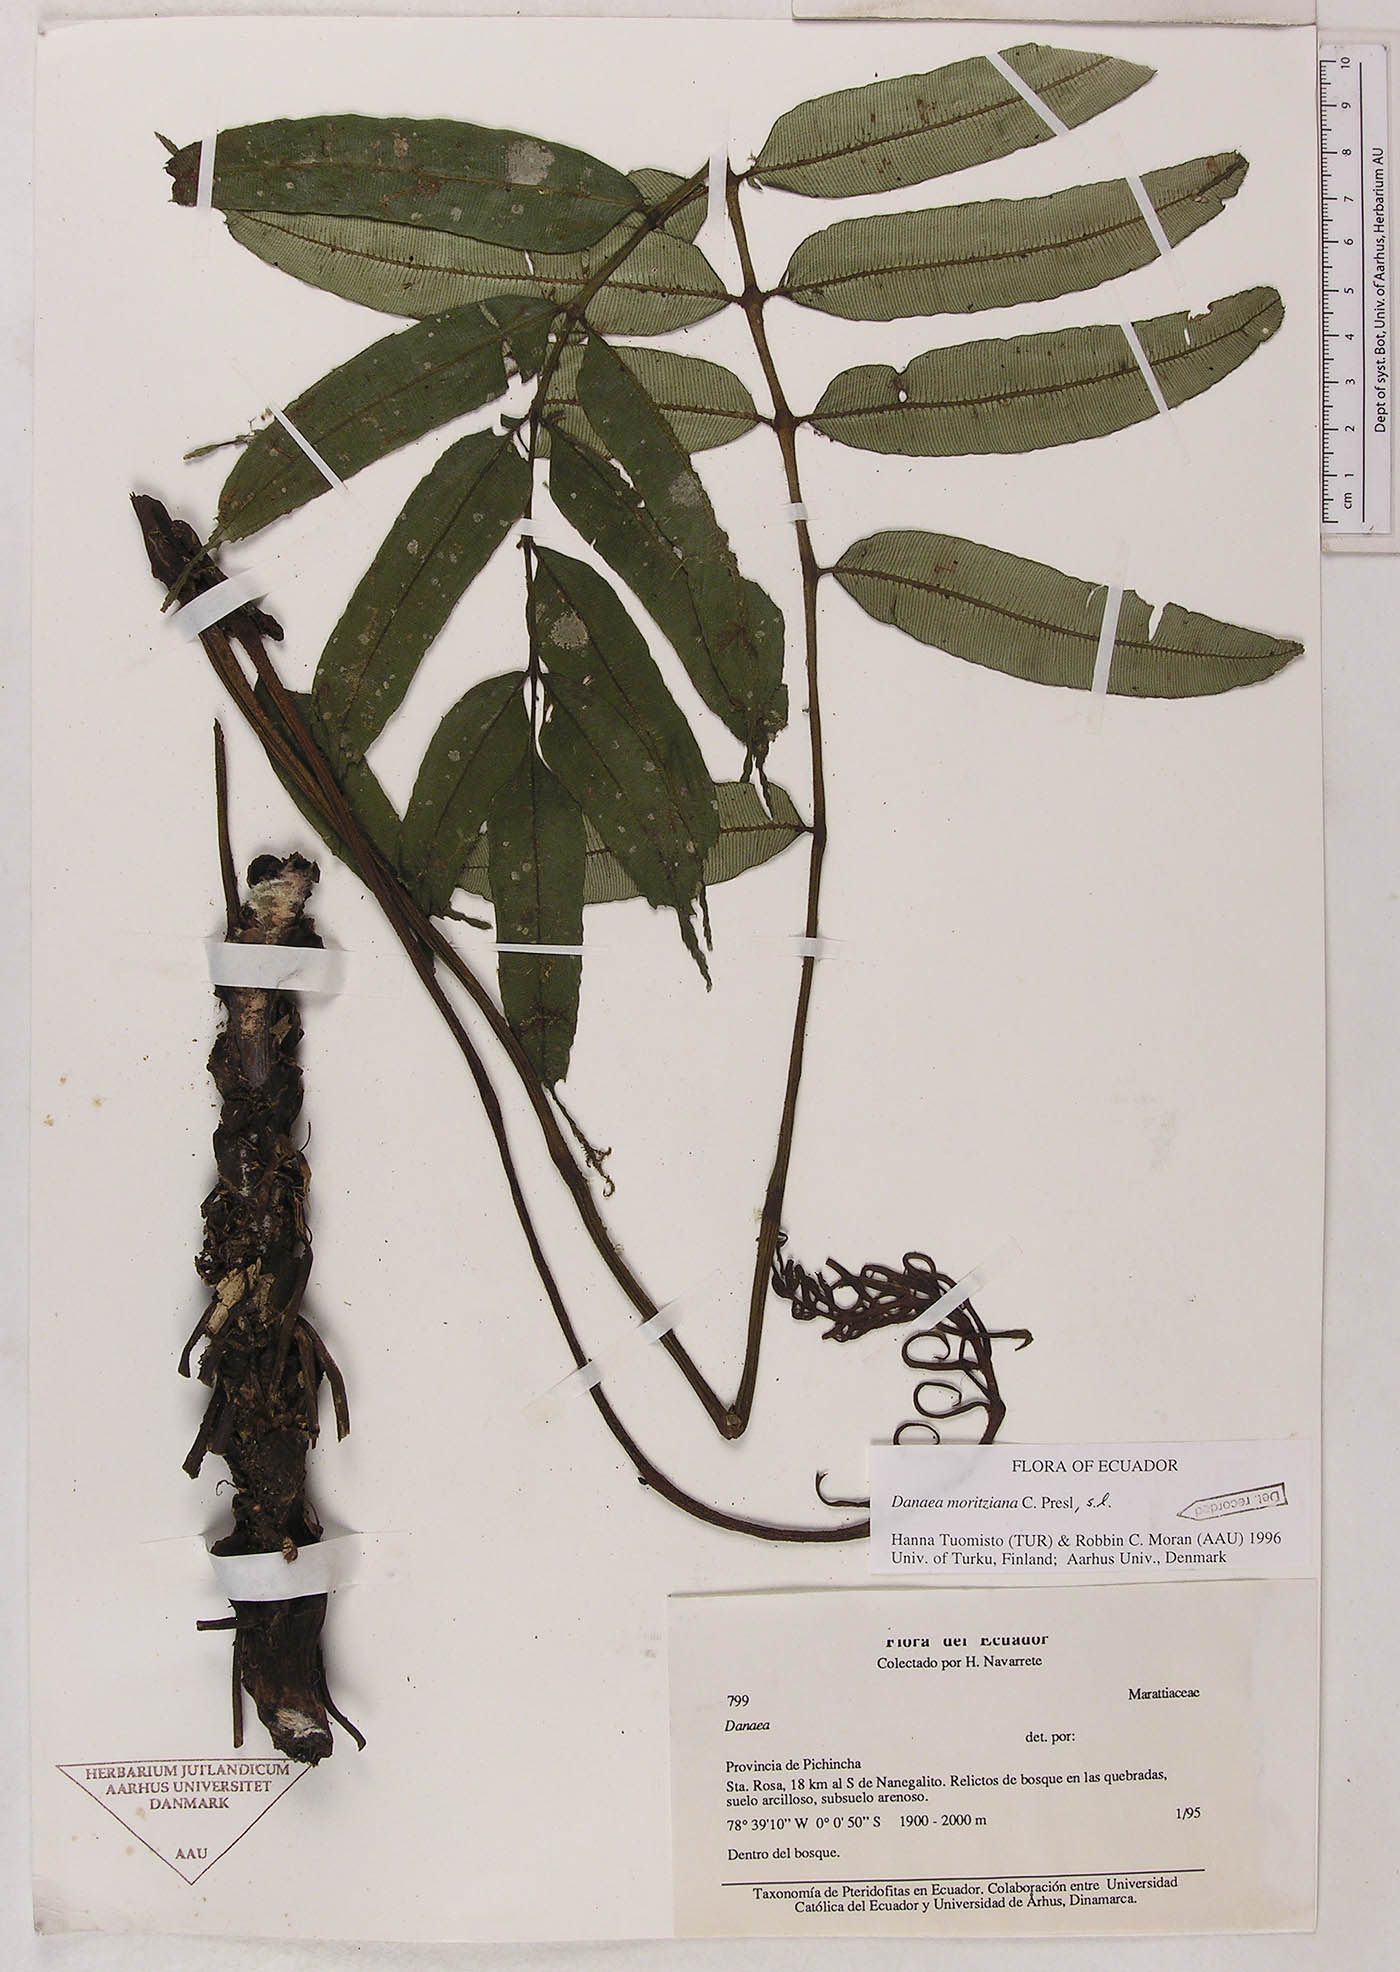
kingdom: Plantae
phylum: Tracheophyta
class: Polypodiopsida
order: Marattiales
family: Marattiaceae
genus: Danaea
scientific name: Danaea moritziana
